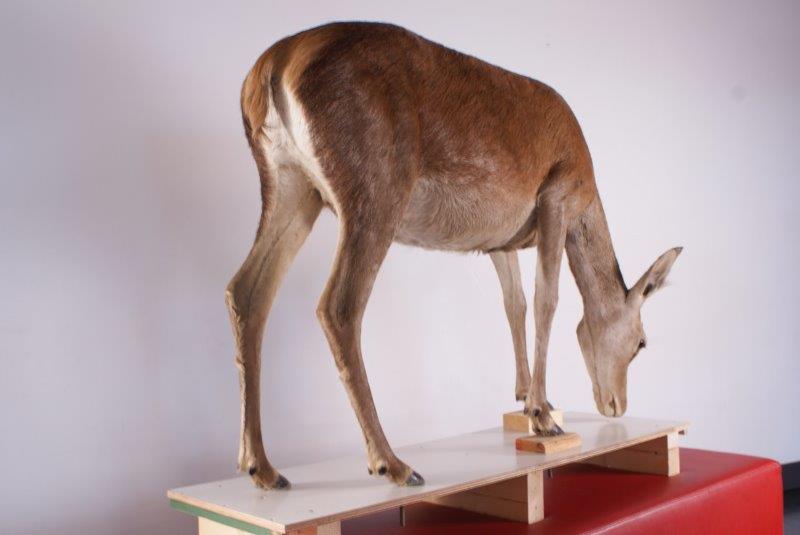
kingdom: Animalia
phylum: Chordata
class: Mammalia
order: Artiodactyla
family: Cervidae
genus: Cervus
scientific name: Cervus elaphus
